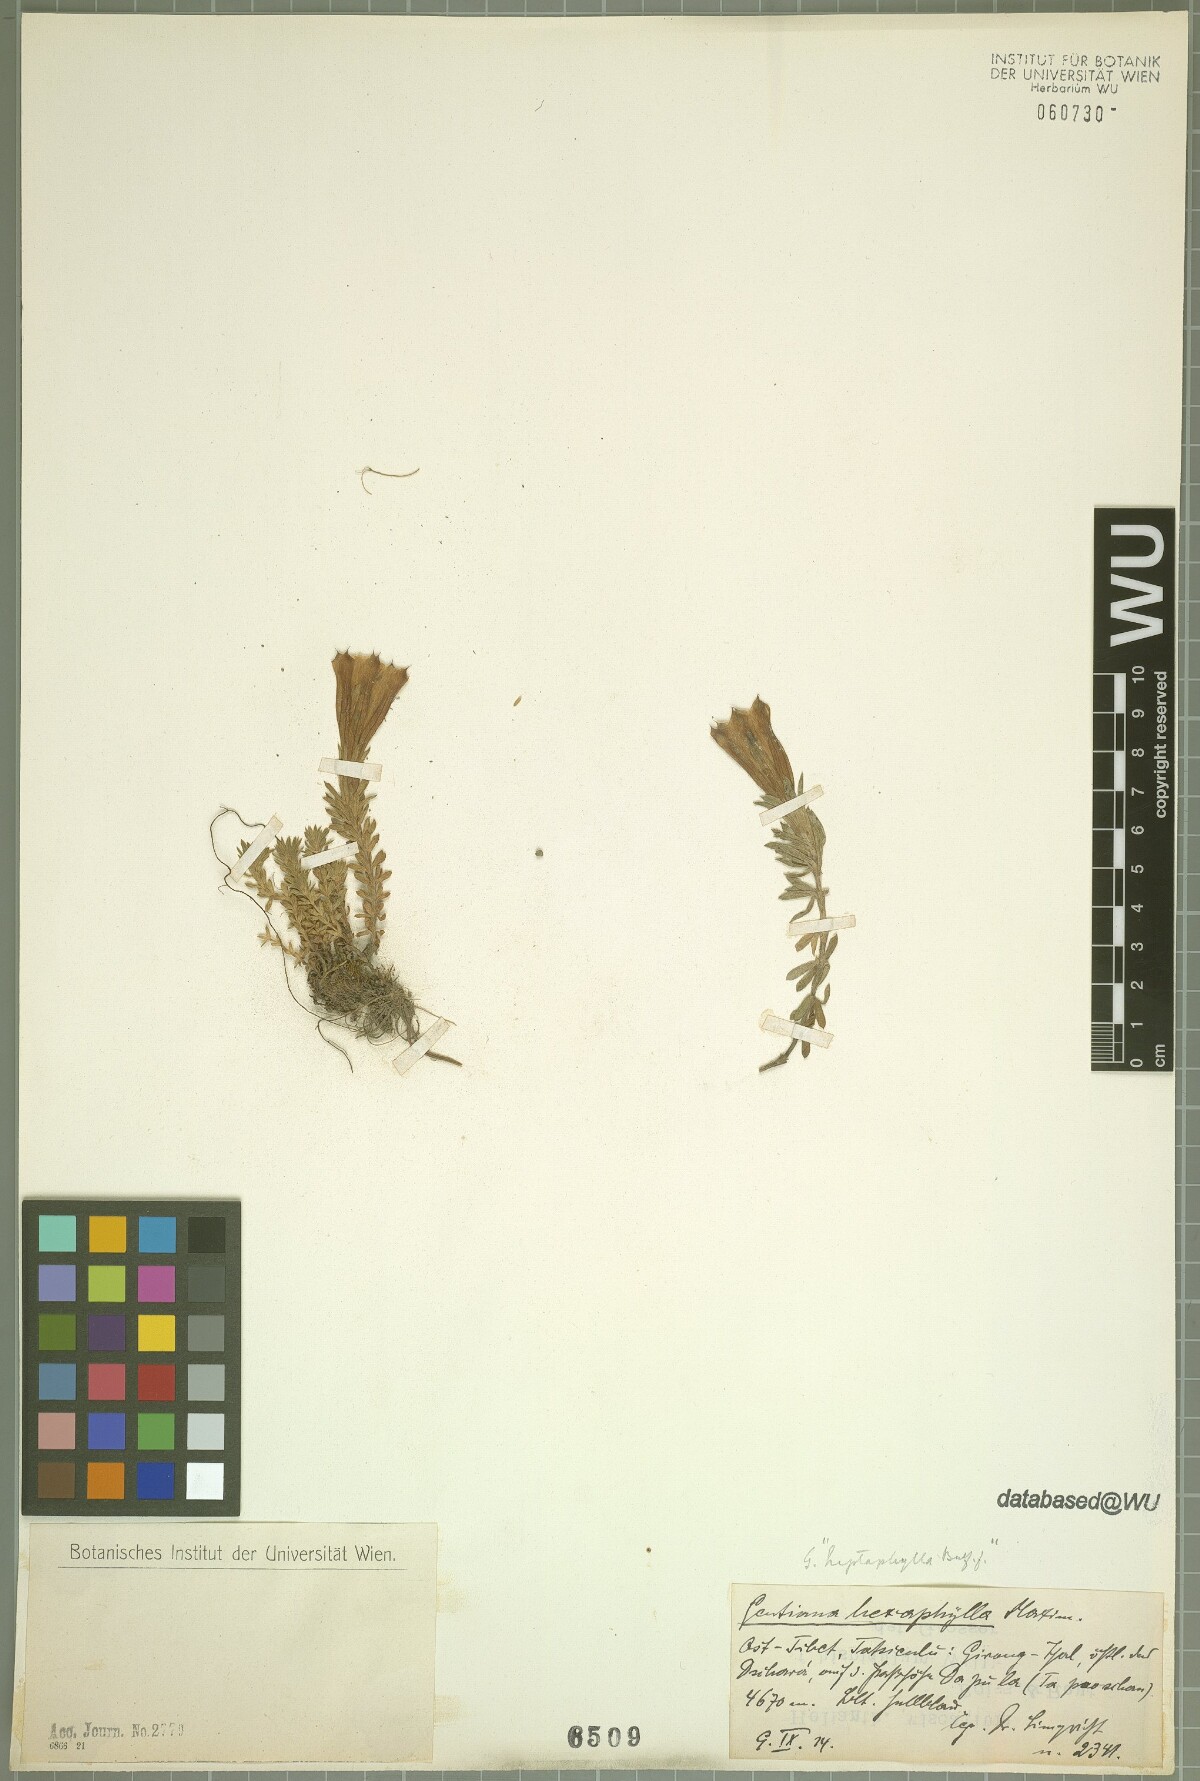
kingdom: Plantae
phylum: Tracheophyta
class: Magnoliopsida
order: Gentianales
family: Gentianaceae
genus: Gentiana
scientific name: Gentiana hexaphylla
